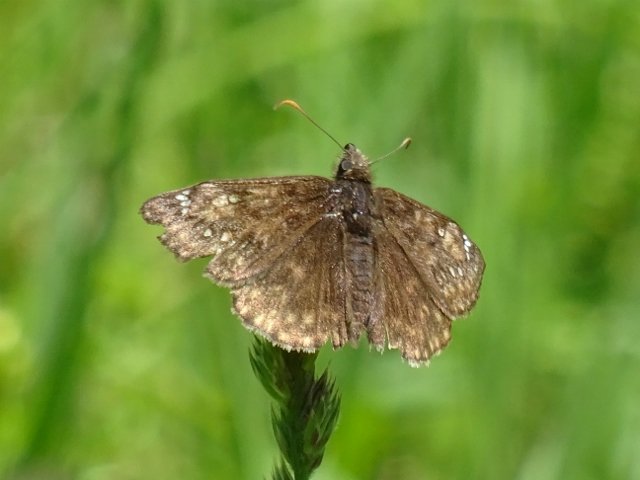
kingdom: Animalia
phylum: Arthropoda
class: Insecta
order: Lepidoptera
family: Hesperiidae
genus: Gesta
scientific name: Gesta
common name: Juvenal's Duskywing
